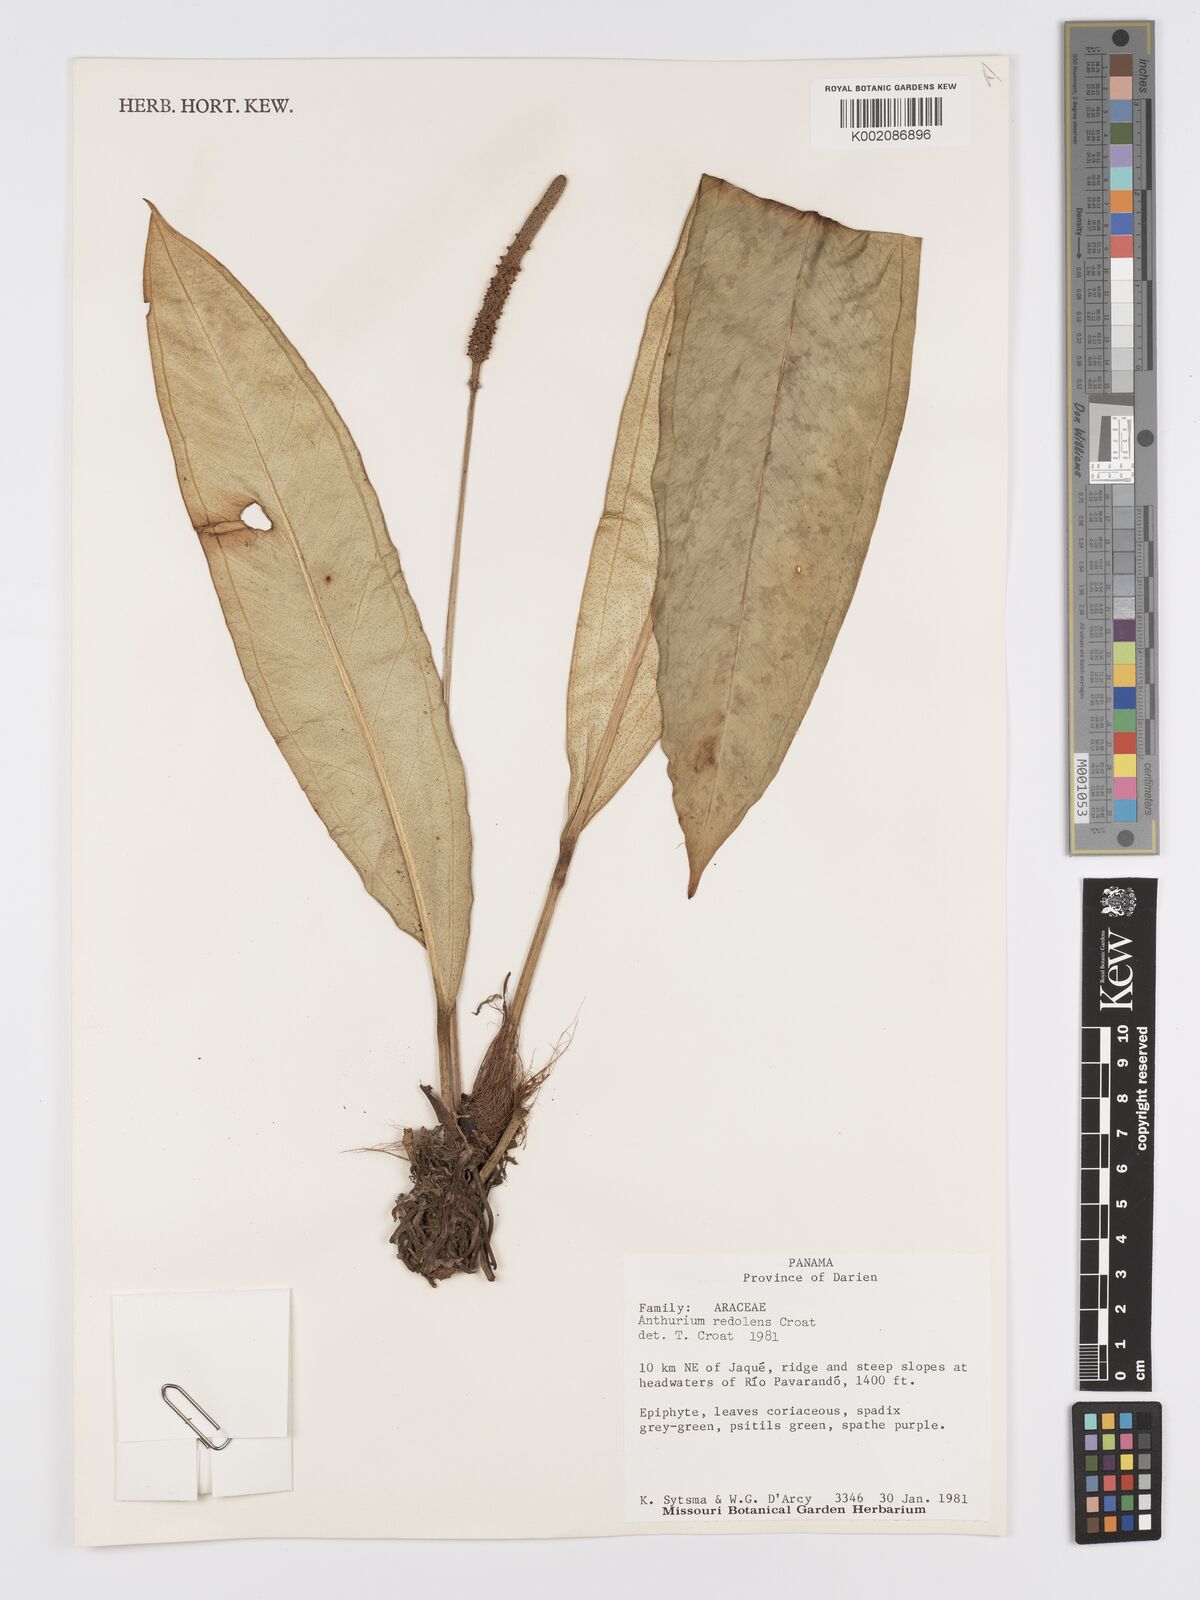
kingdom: Plantae
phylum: Tracheophyta
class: Liliopsida
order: Alismatales
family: Araceae
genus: Anthurium
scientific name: Anthurium redolens
